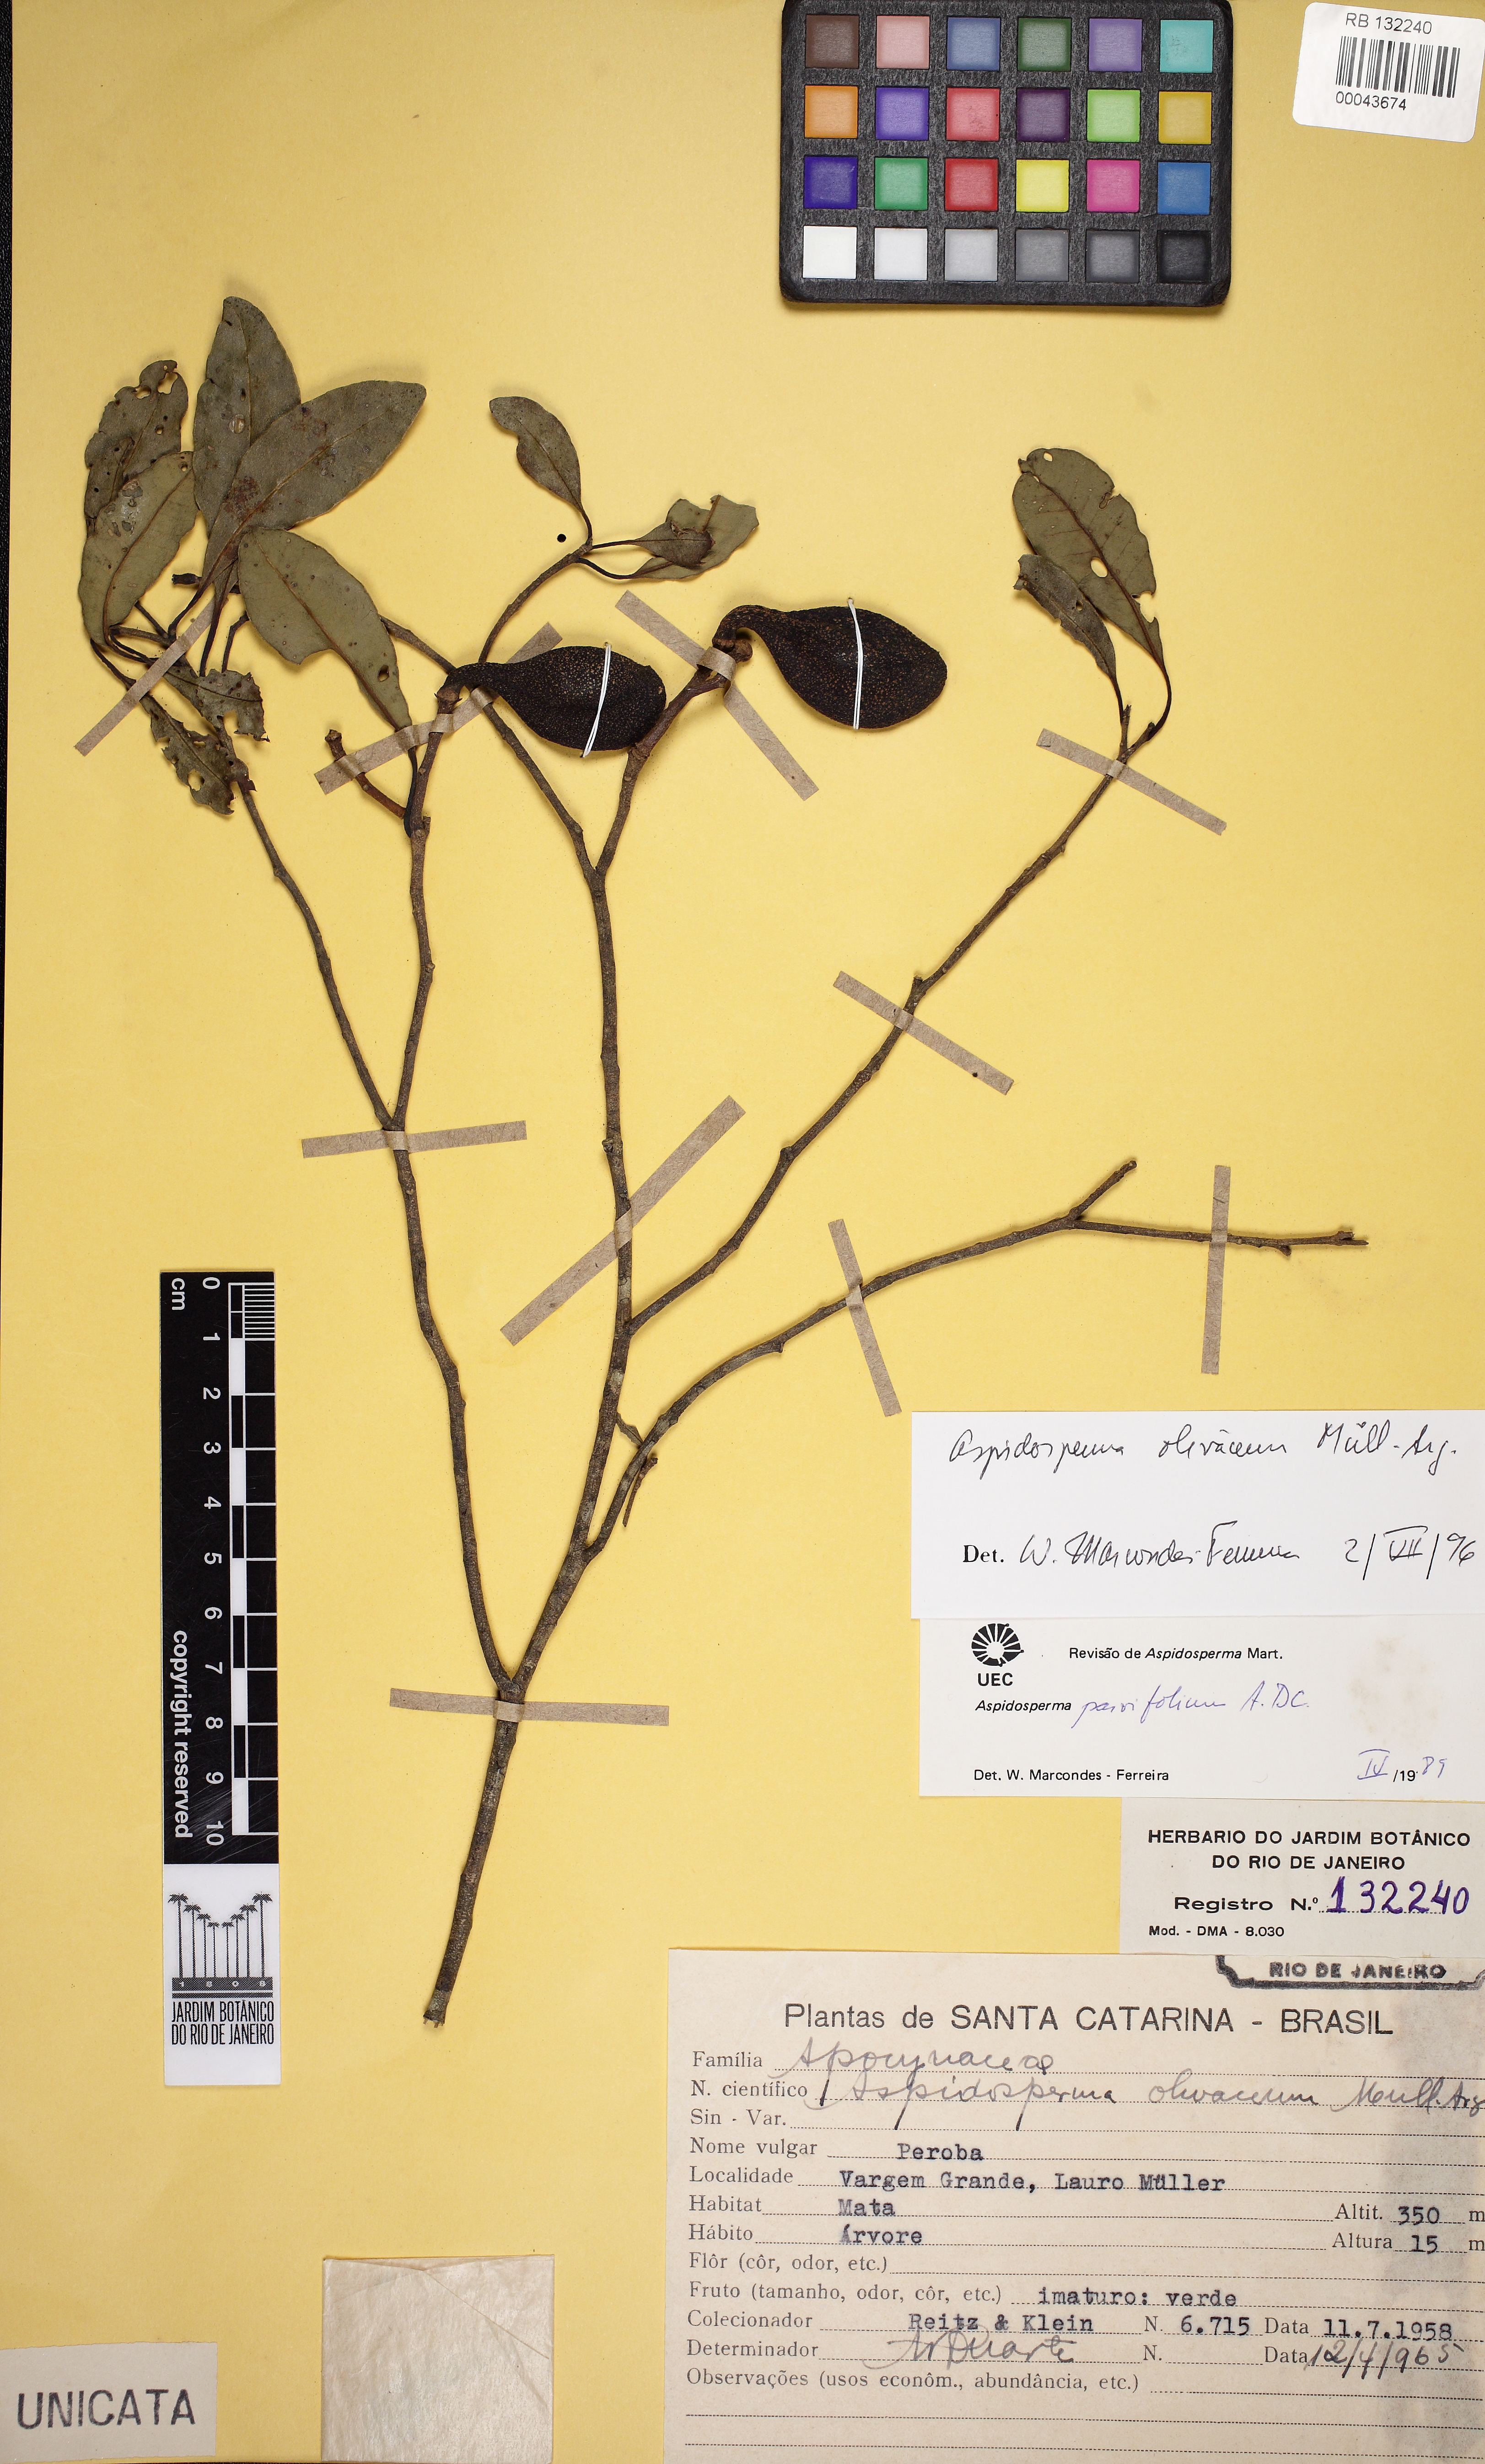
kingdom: Plantae
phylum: Tracheophyta
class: Magnoliopsida
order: Gentianales
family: Apocynaceae
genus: Aspidosperma
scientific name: Aspidosperma olivaceum
